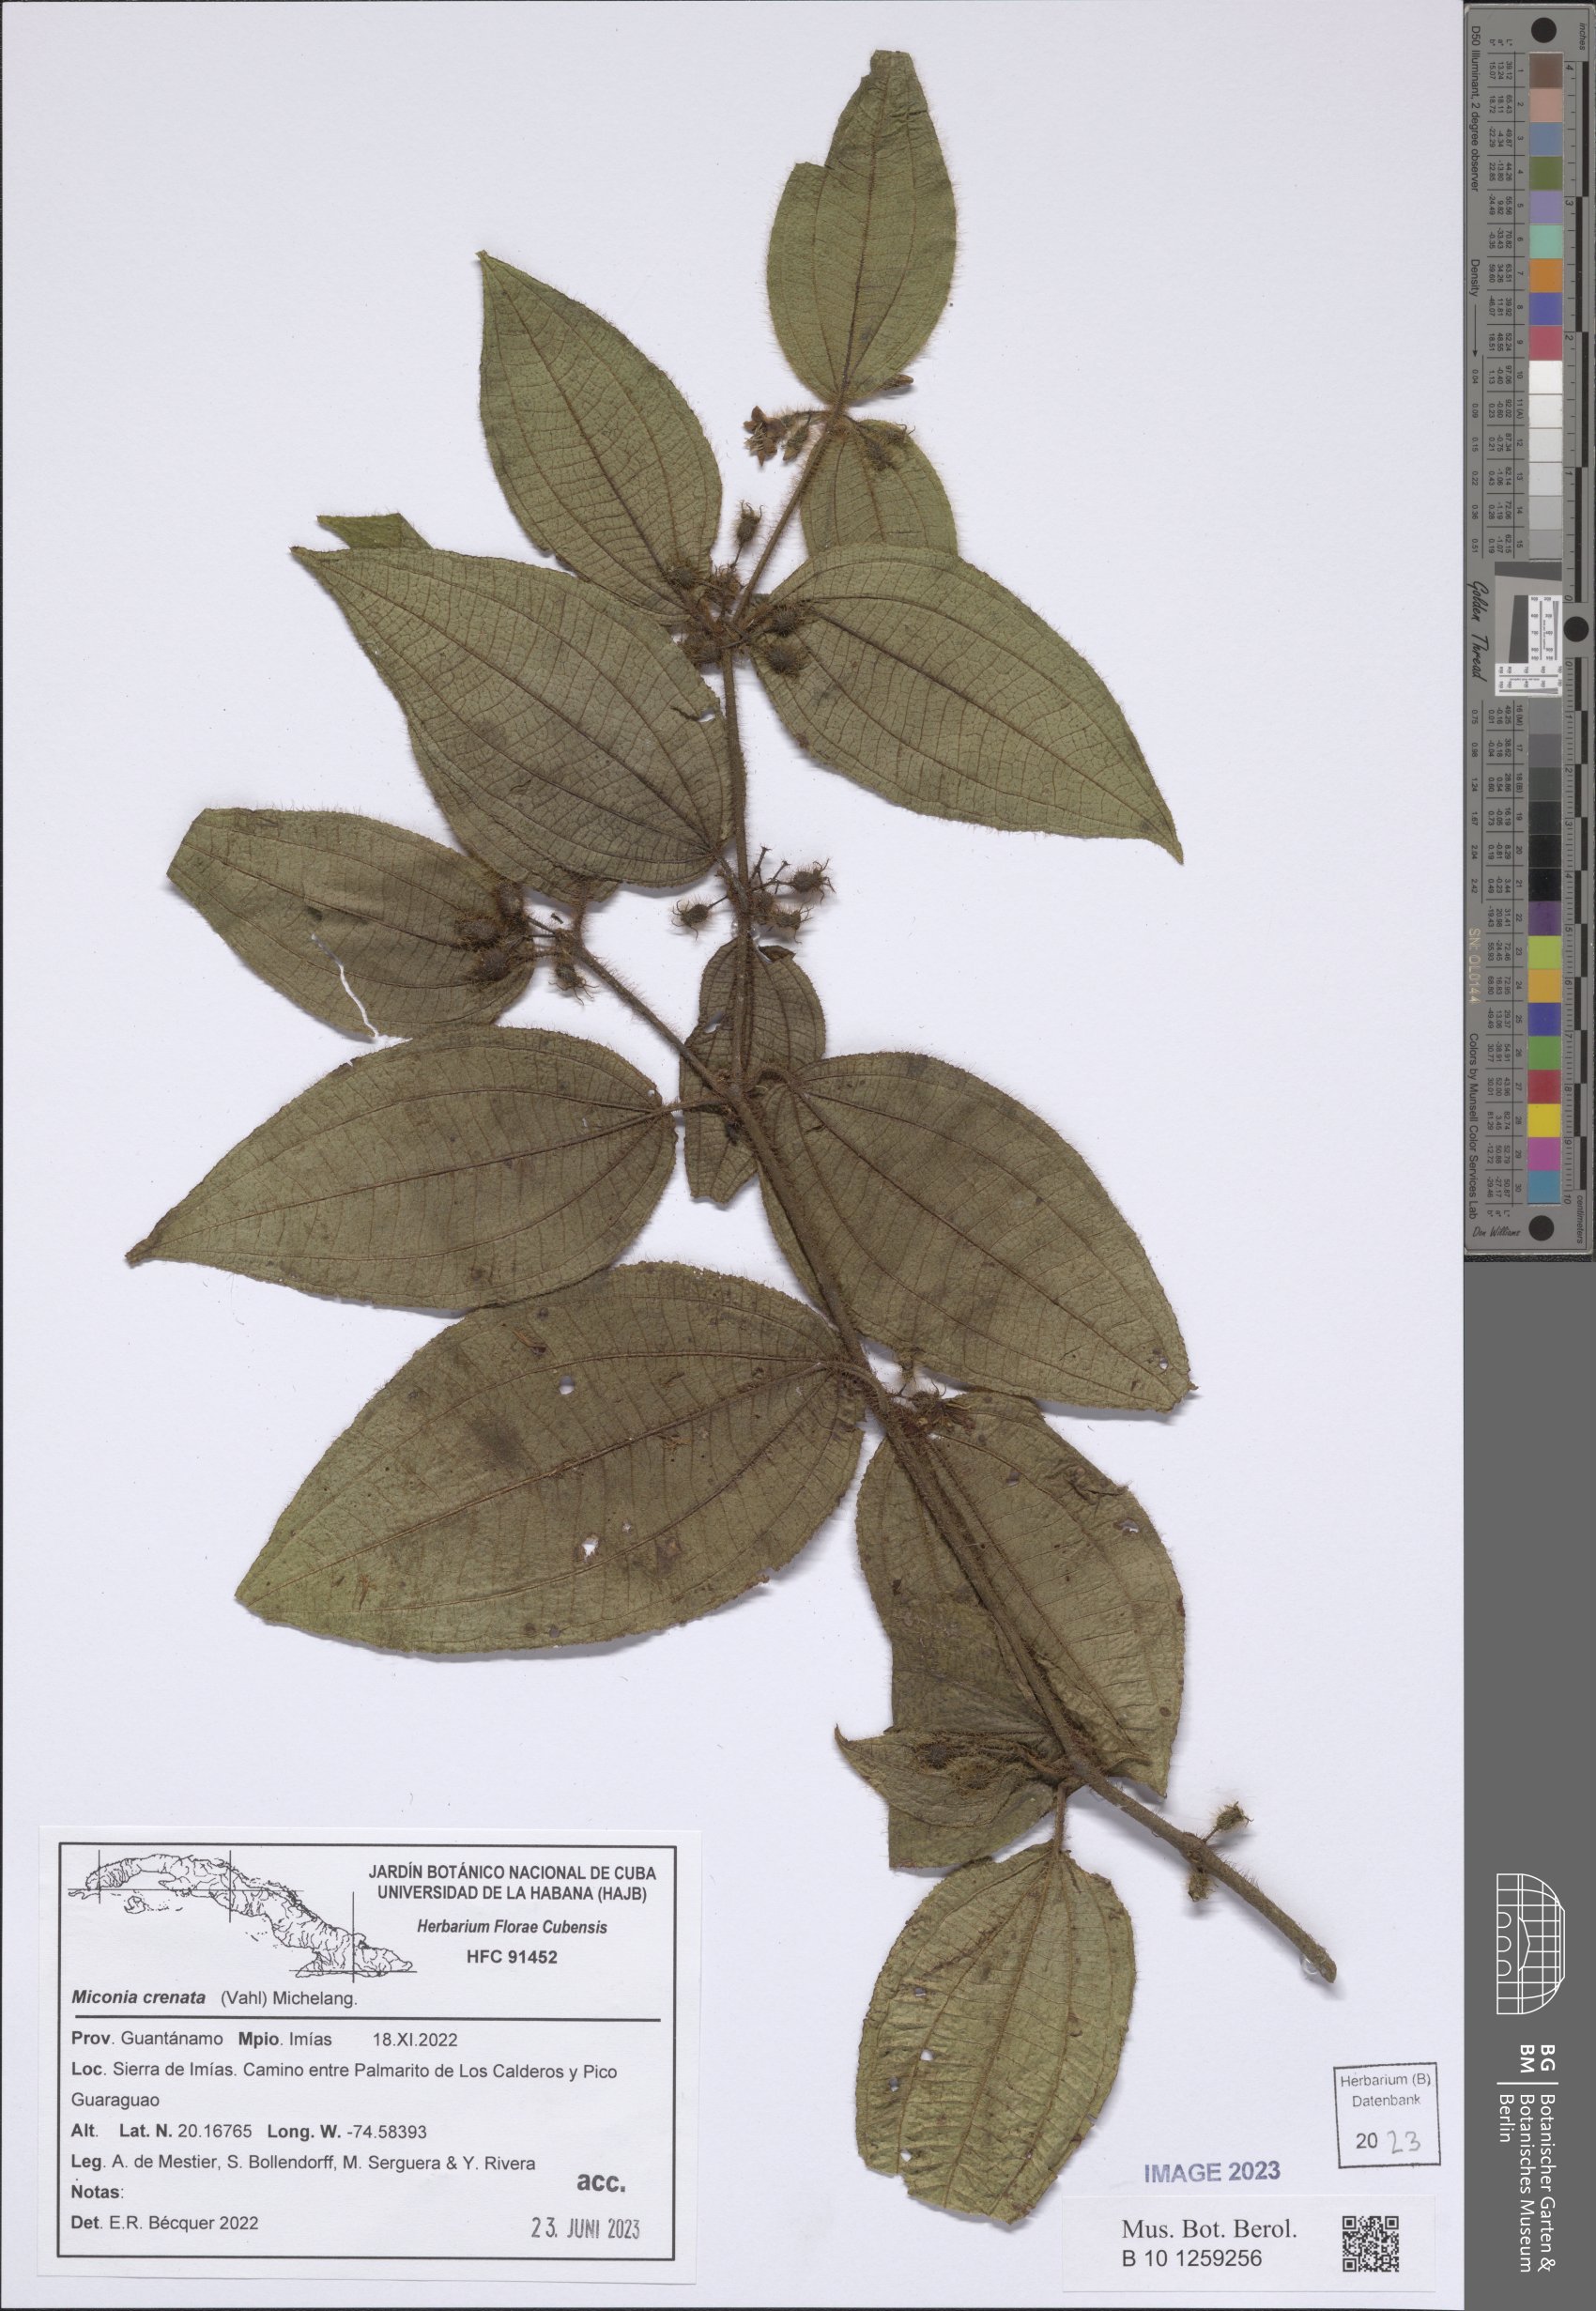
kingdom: Plantae
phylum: Tracheophyta
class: Magnoliopsida
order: Myrtales
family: Melastomataceae
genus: Miconia
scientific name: Miconia crenata
